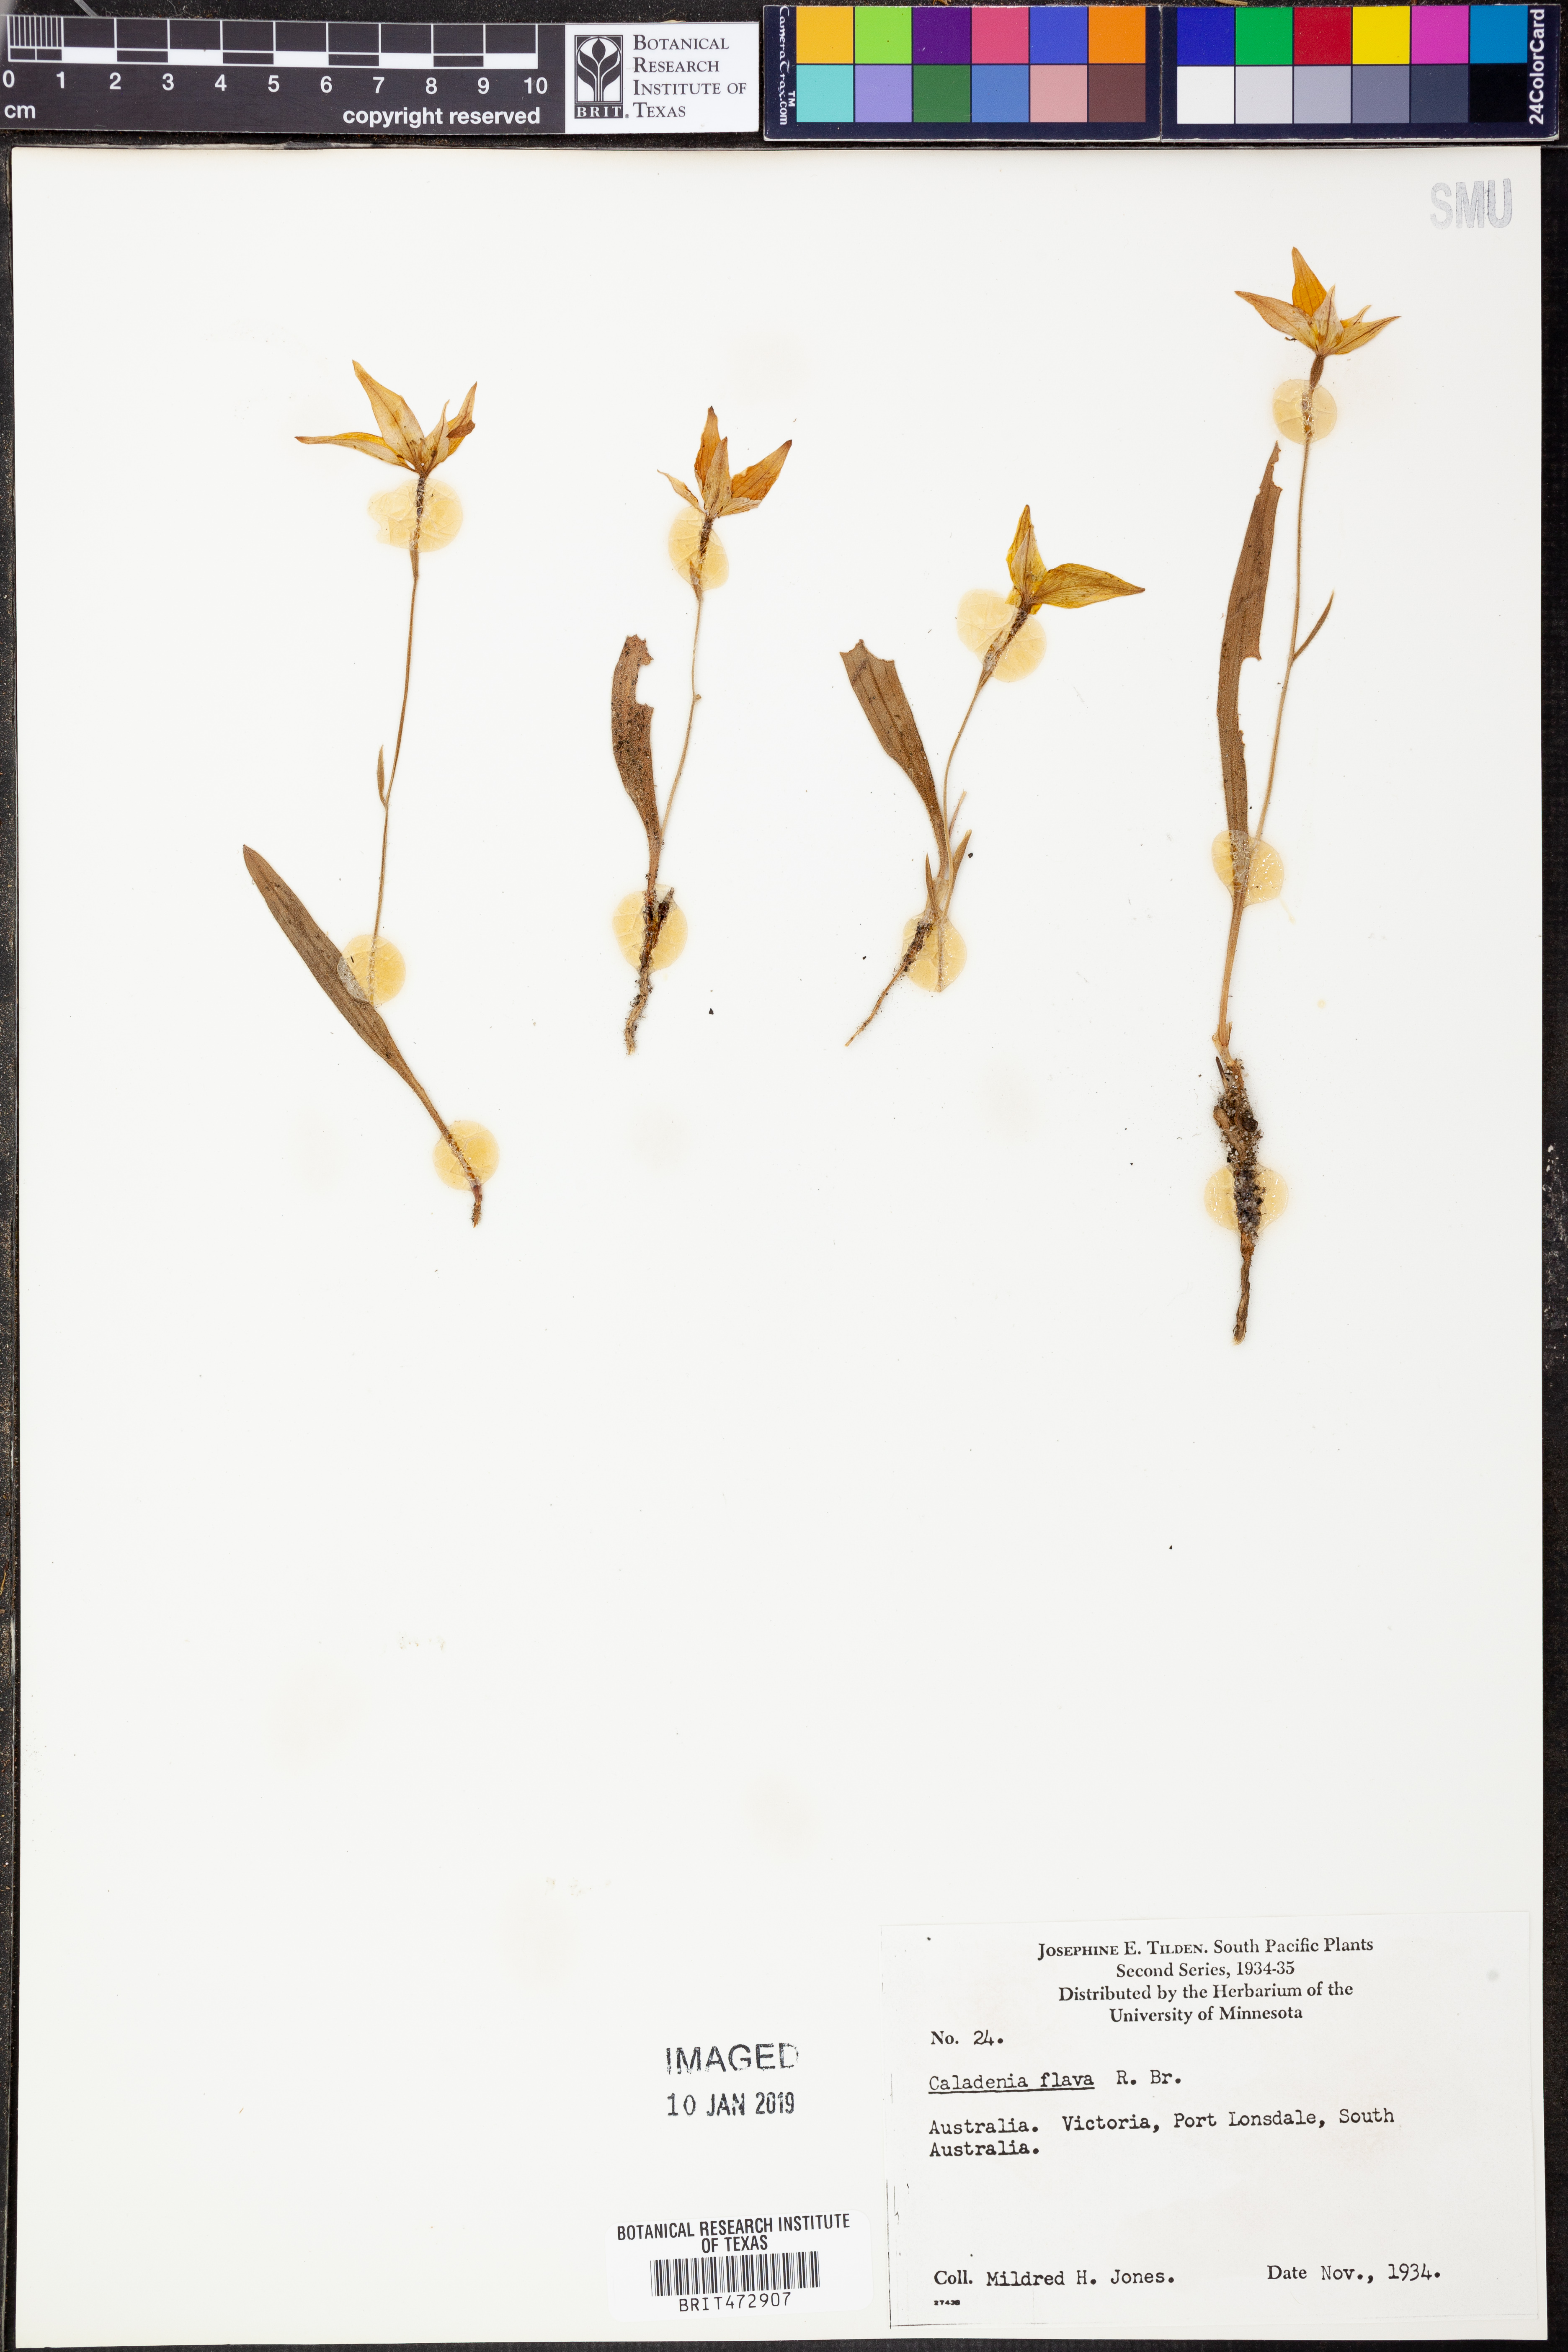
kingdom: Plantae
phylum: Tracheophyta
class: Liliopsida
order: Asparagales
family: Orchidaceae
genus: Caladenia
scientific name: Caladenia flava
